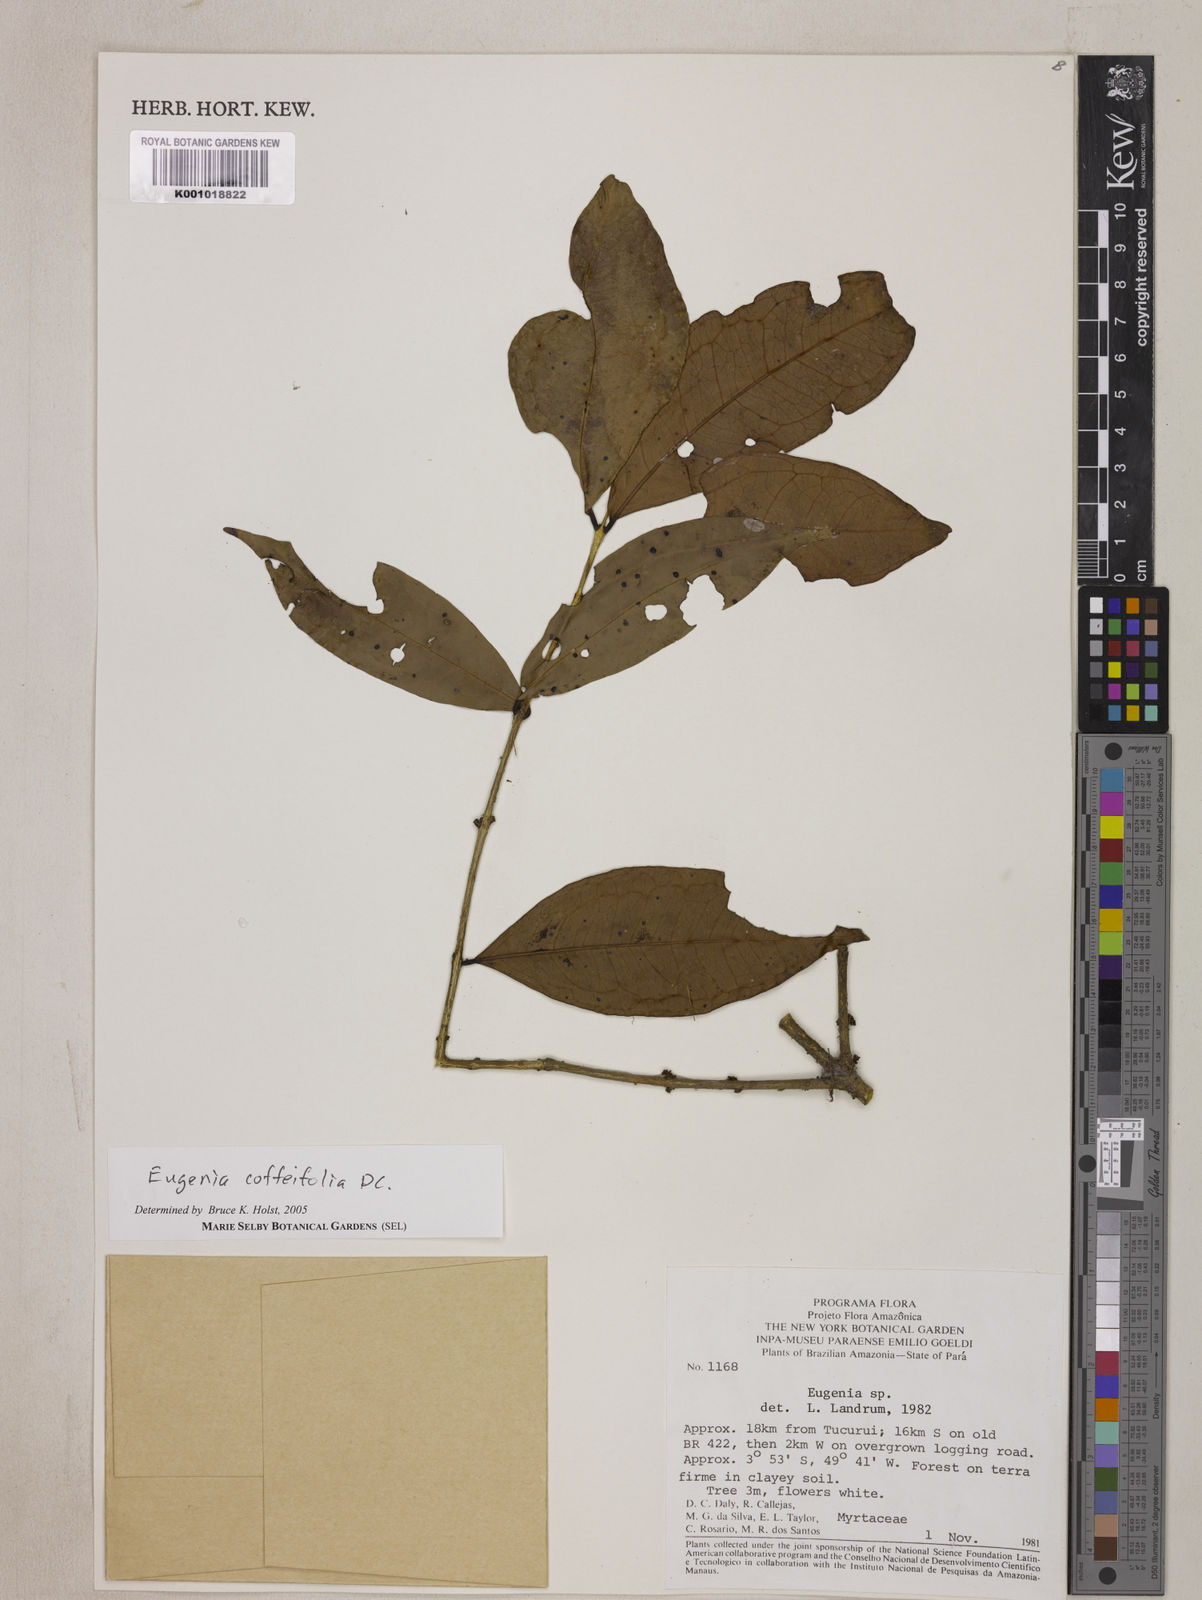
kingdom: Plantae
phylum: Tracheophyta
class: Magnoliopsida
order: Myrtales
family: Myrtaceae
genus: Eugenia
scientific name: Eugenia coffeifolia
